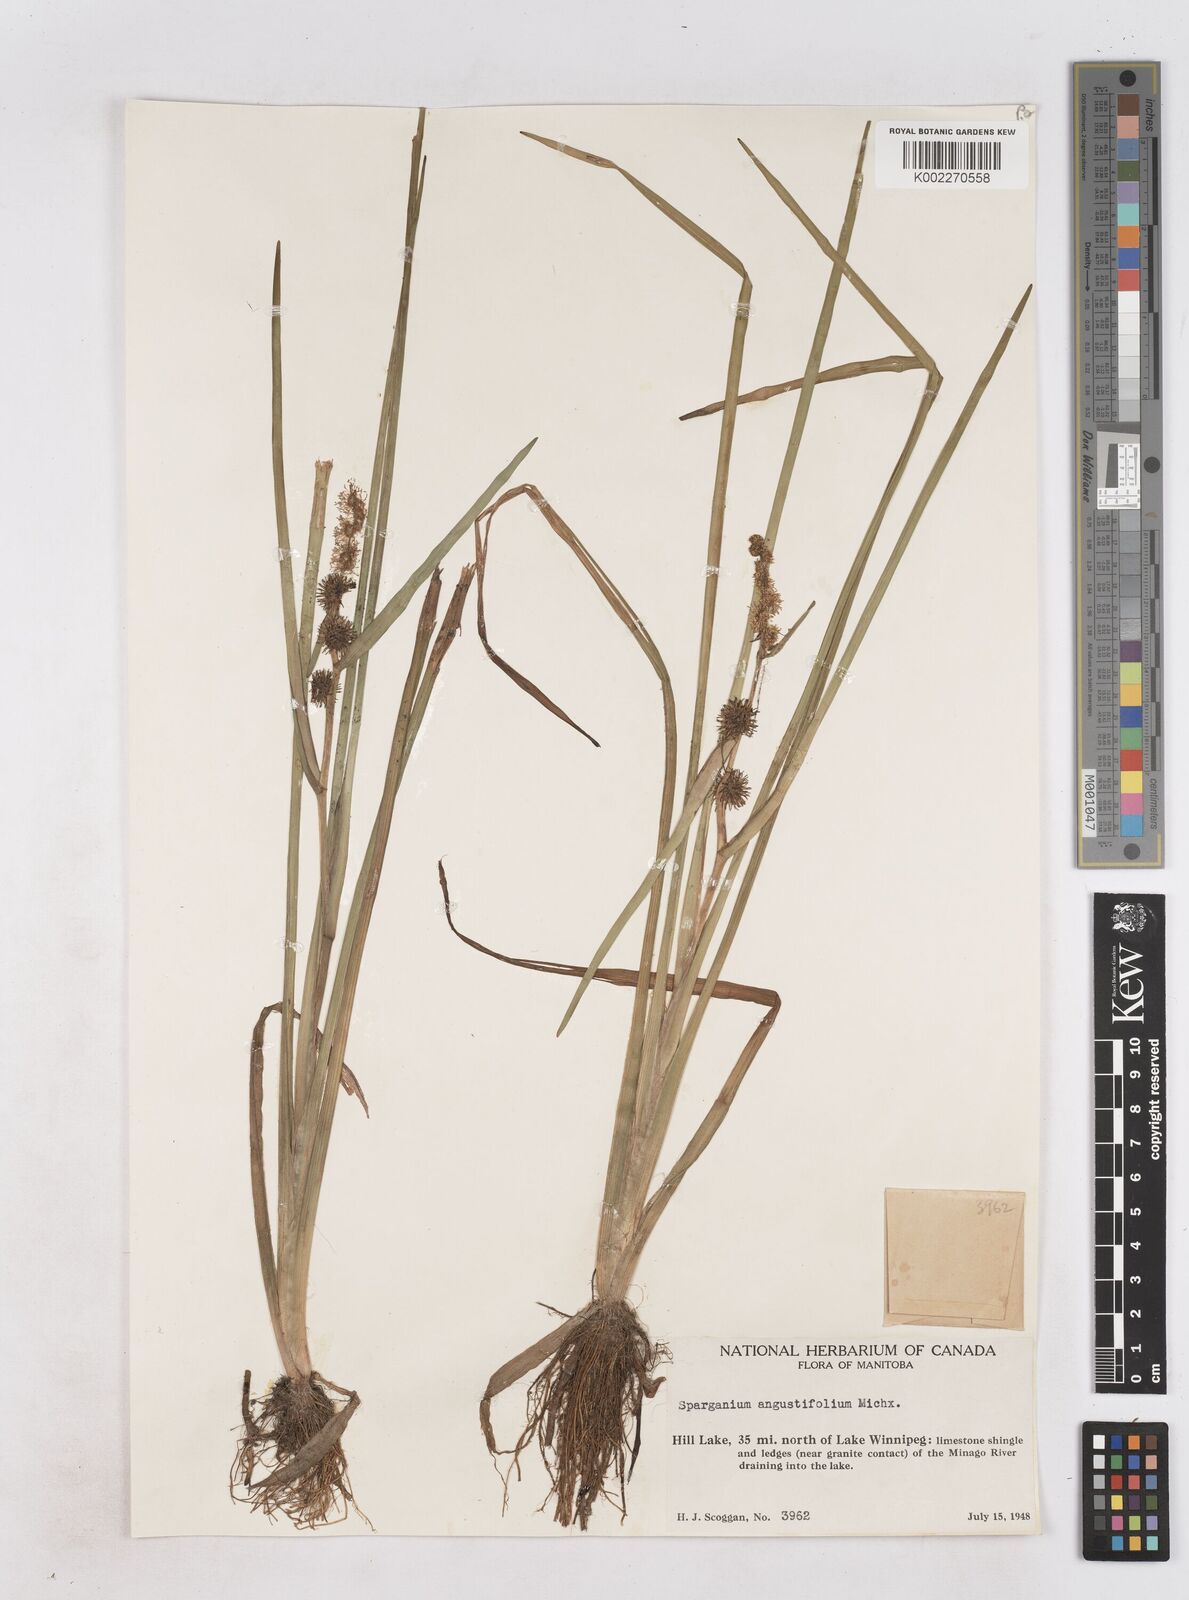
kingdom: Plantae
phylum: Tracheophyta
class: Liliopsida
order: Poales
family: Typhaceae
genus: Sparganium
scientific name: Sparganium angustifolium
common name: Floating bur-reed
